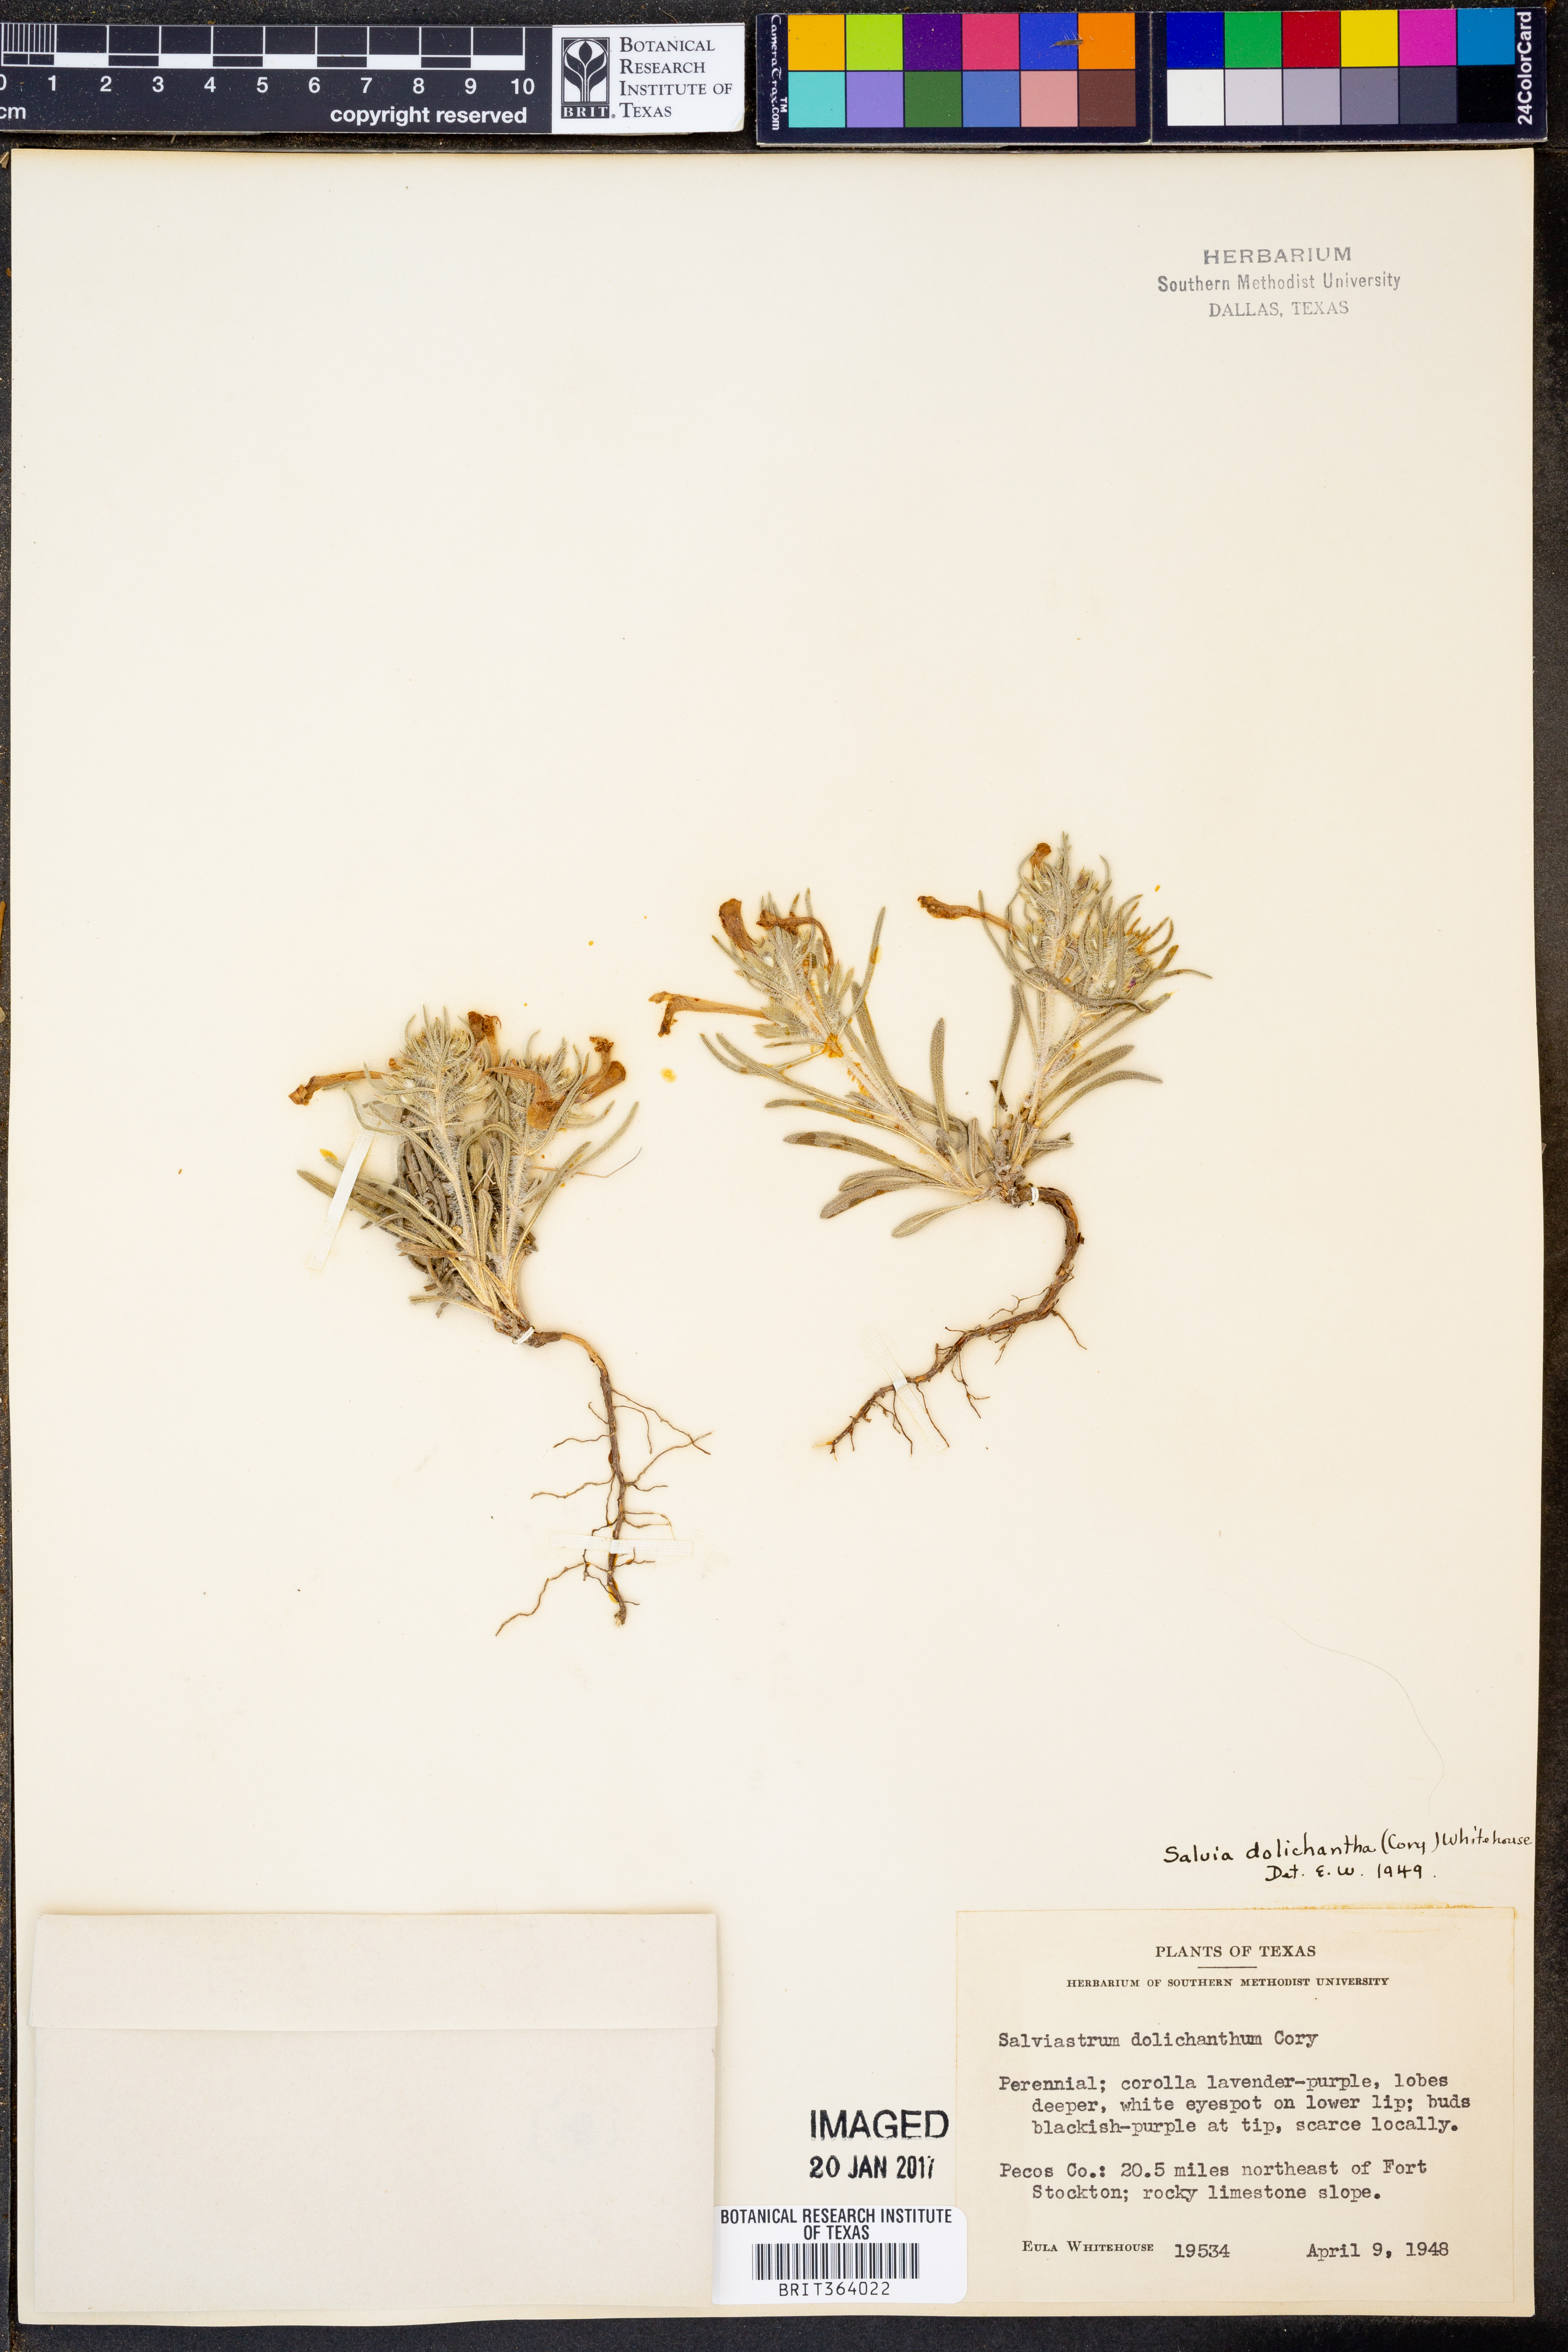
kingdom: Plantae
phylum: Tracheophyta
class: Magnoliopsida
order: Lamiales
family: Lamiaceae
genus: Salvia
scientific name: Salvia whitehousei
